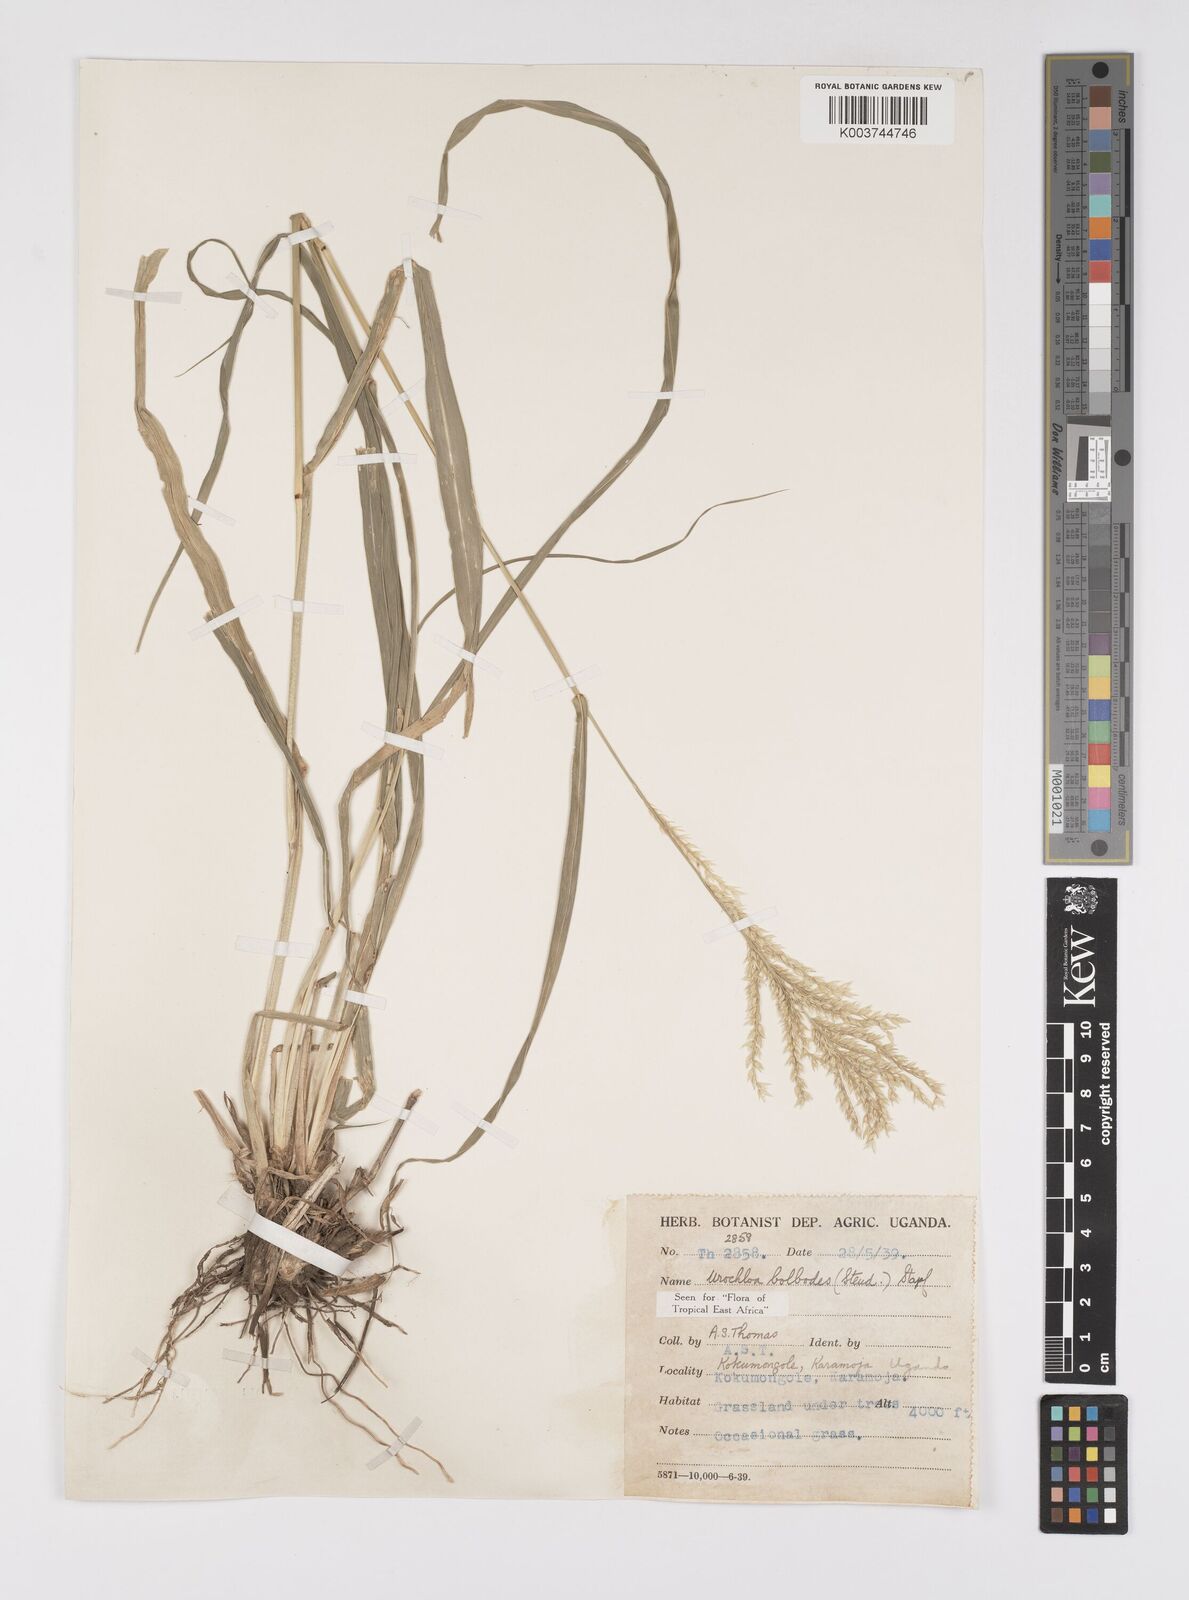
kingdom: Plantae
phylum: Tracheophyta
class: Liliopsida
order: Poales
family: Poaceae
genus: Urochloa
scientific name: Urochloa oligotricha
